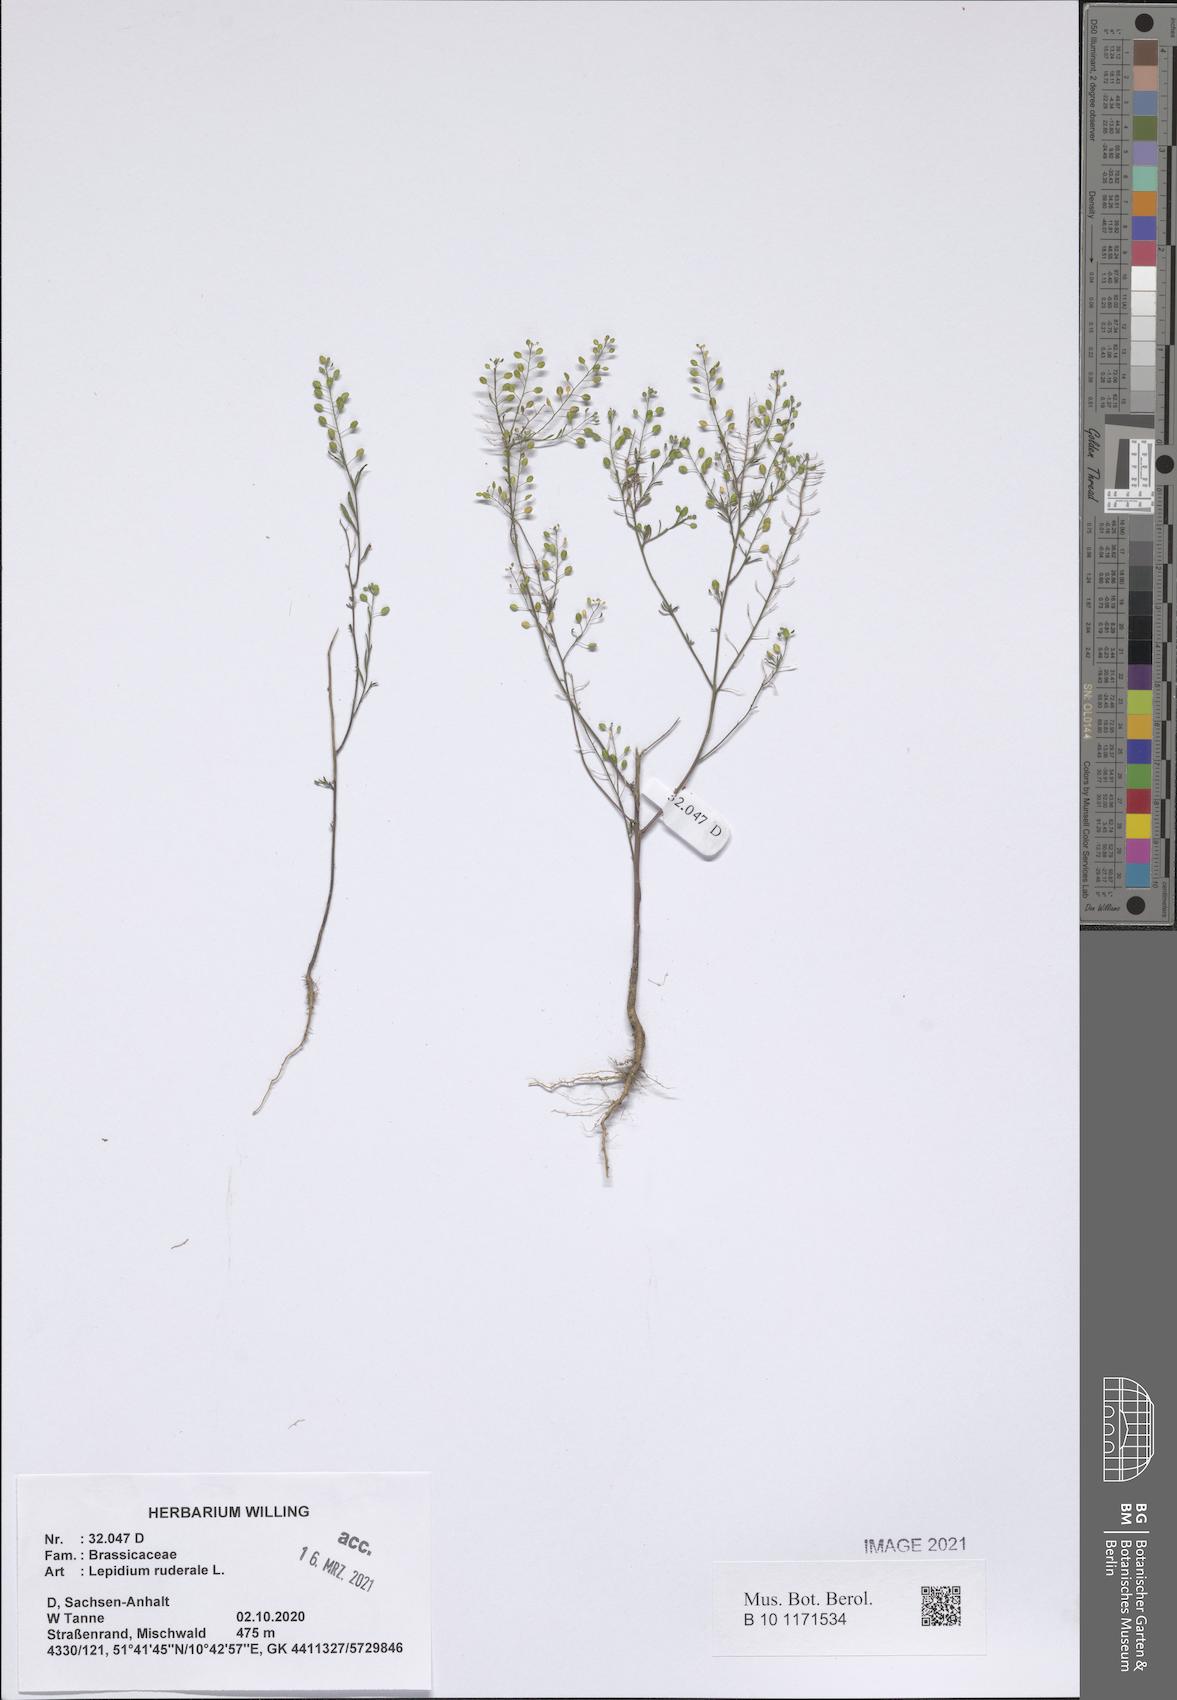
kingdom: Plantae
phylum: Tracheophyta
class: Magnoliopsida
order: Brassicales
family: Brassicaceae
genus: Lepidium
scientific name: Lepidium ruderale
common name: Narrow-leaved pepperwort
